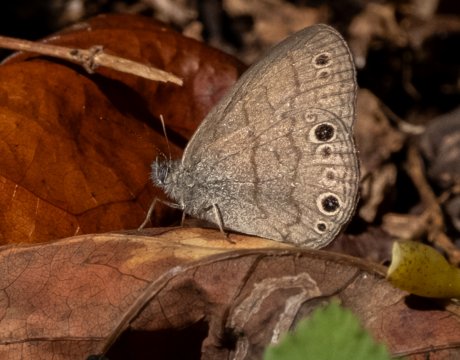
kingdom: Animalia
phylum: Arthropoda
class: Insecta
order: Lepidoptera
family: Nymphalidae
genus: Hermeuptychia
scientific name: Hermeuptychia hermes
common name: Carolina Satyr
